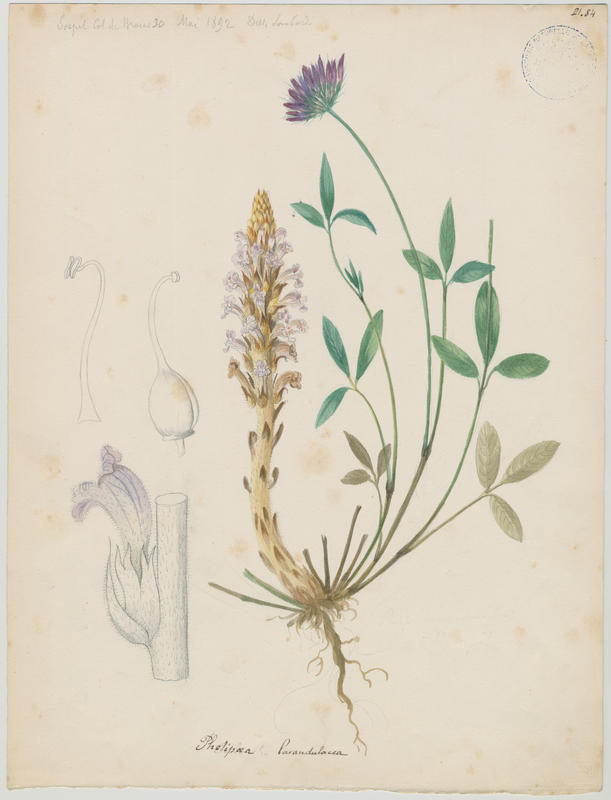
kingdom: Plantae
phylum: Tracheophyta
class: Magnoliopsida
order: Lamiales
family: Orobanchaceae
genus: Phelipanche
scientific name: Phelipanche lavandulacea
